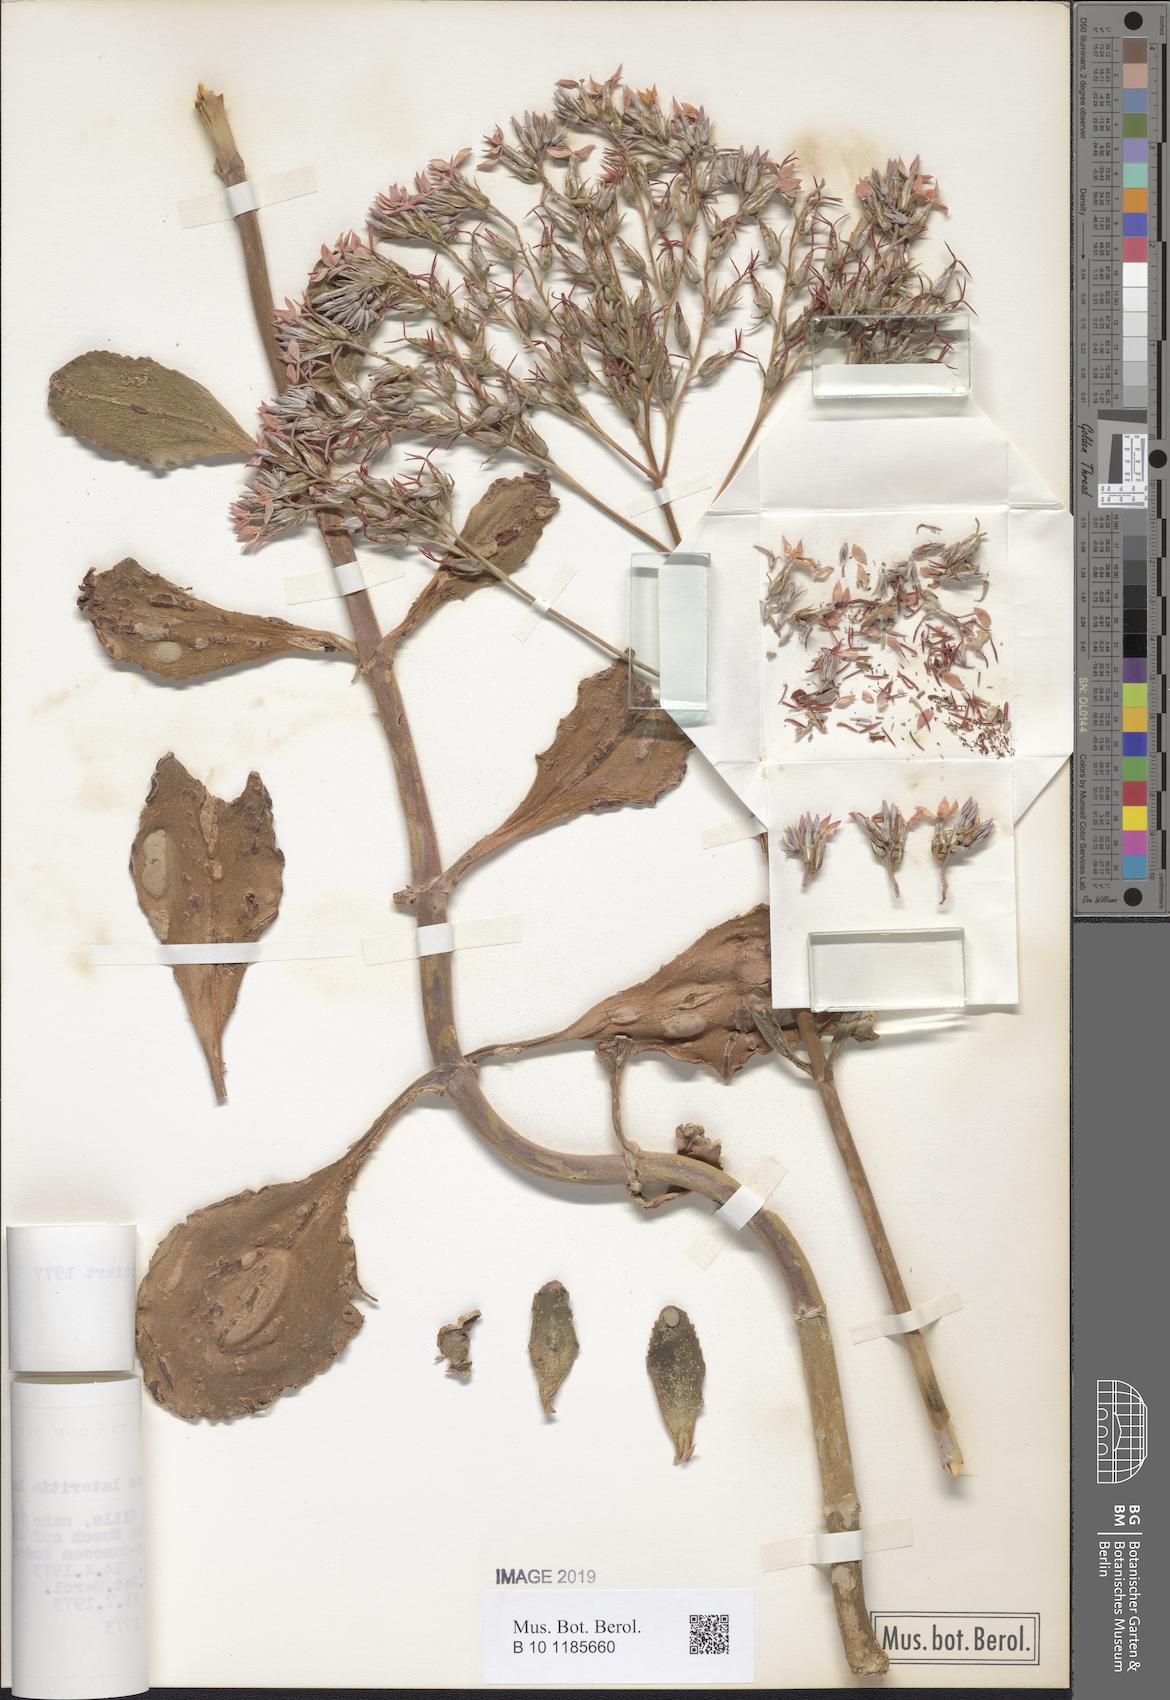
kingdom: Plantae
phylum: Tracheophyta
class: Magnoliopsida
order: Saxifragales
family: Crassulaceae
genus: Kalanchoe
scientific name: Kalanchoe lateritia
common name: Kalanchoe
